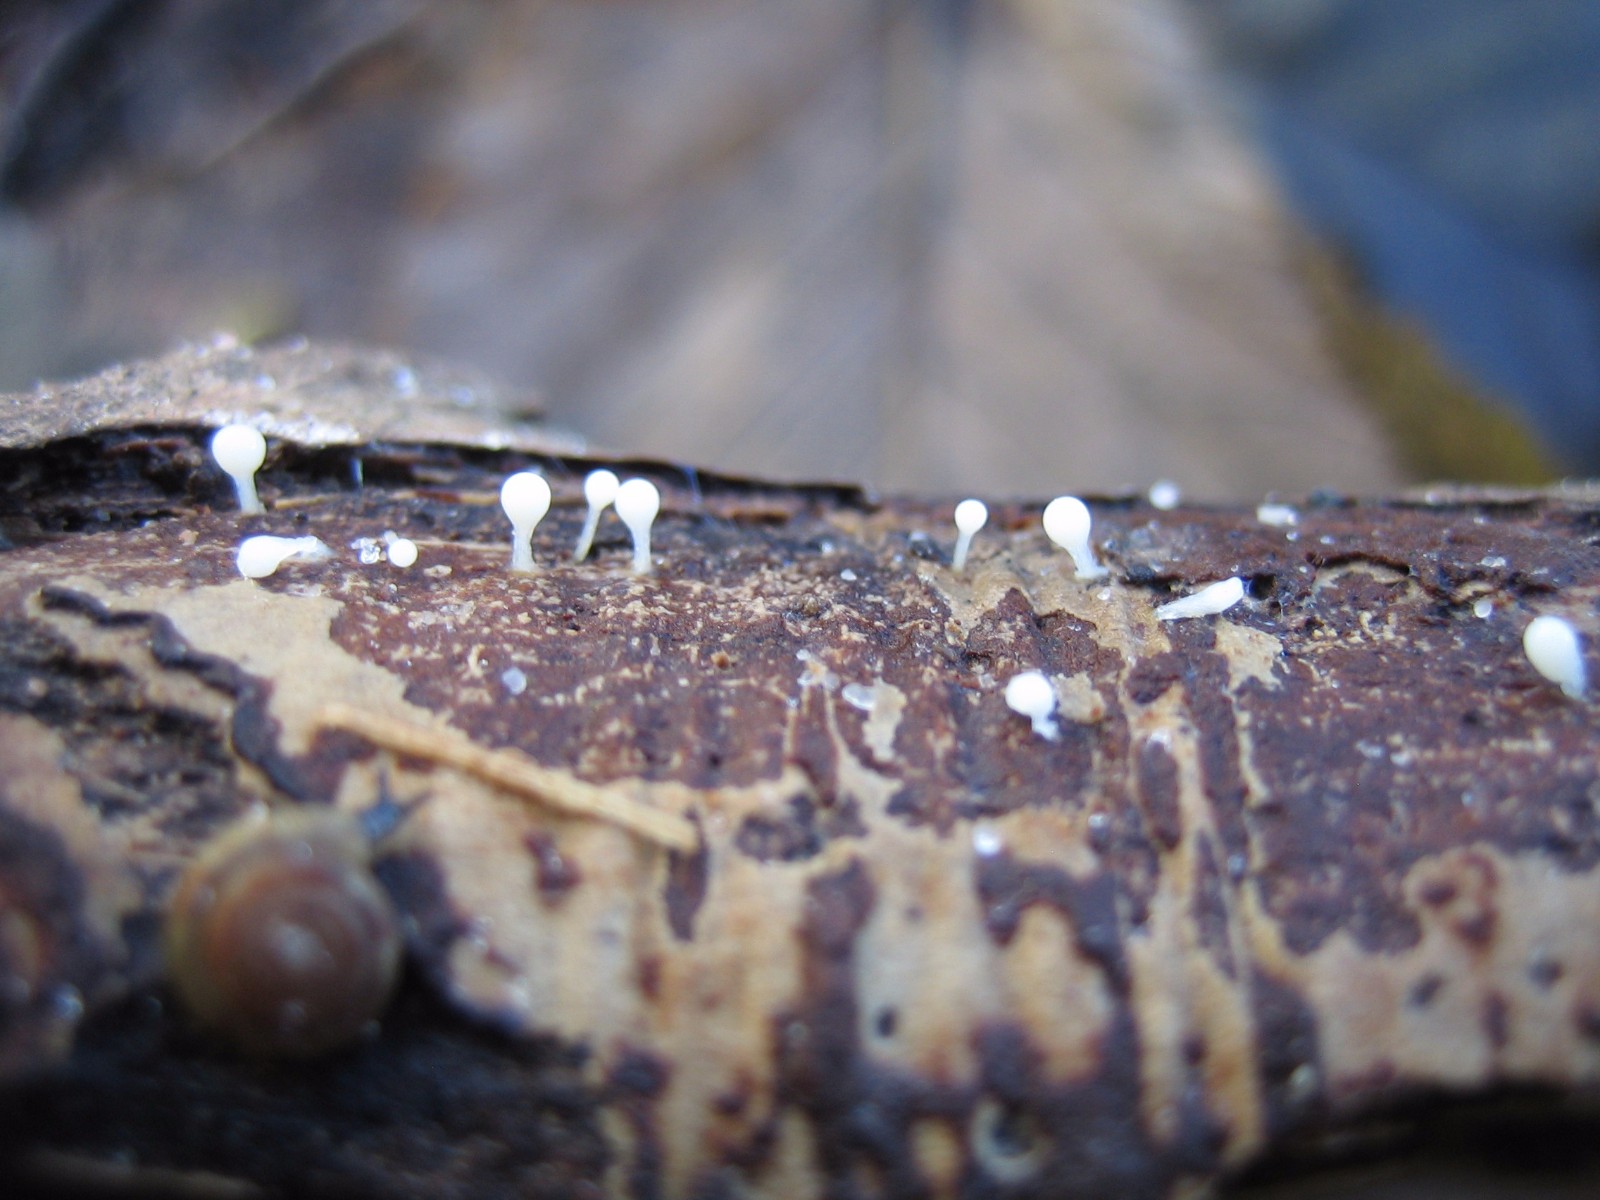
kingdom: Protozoa
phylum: Mycetozoa
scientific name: Mycetozoa
